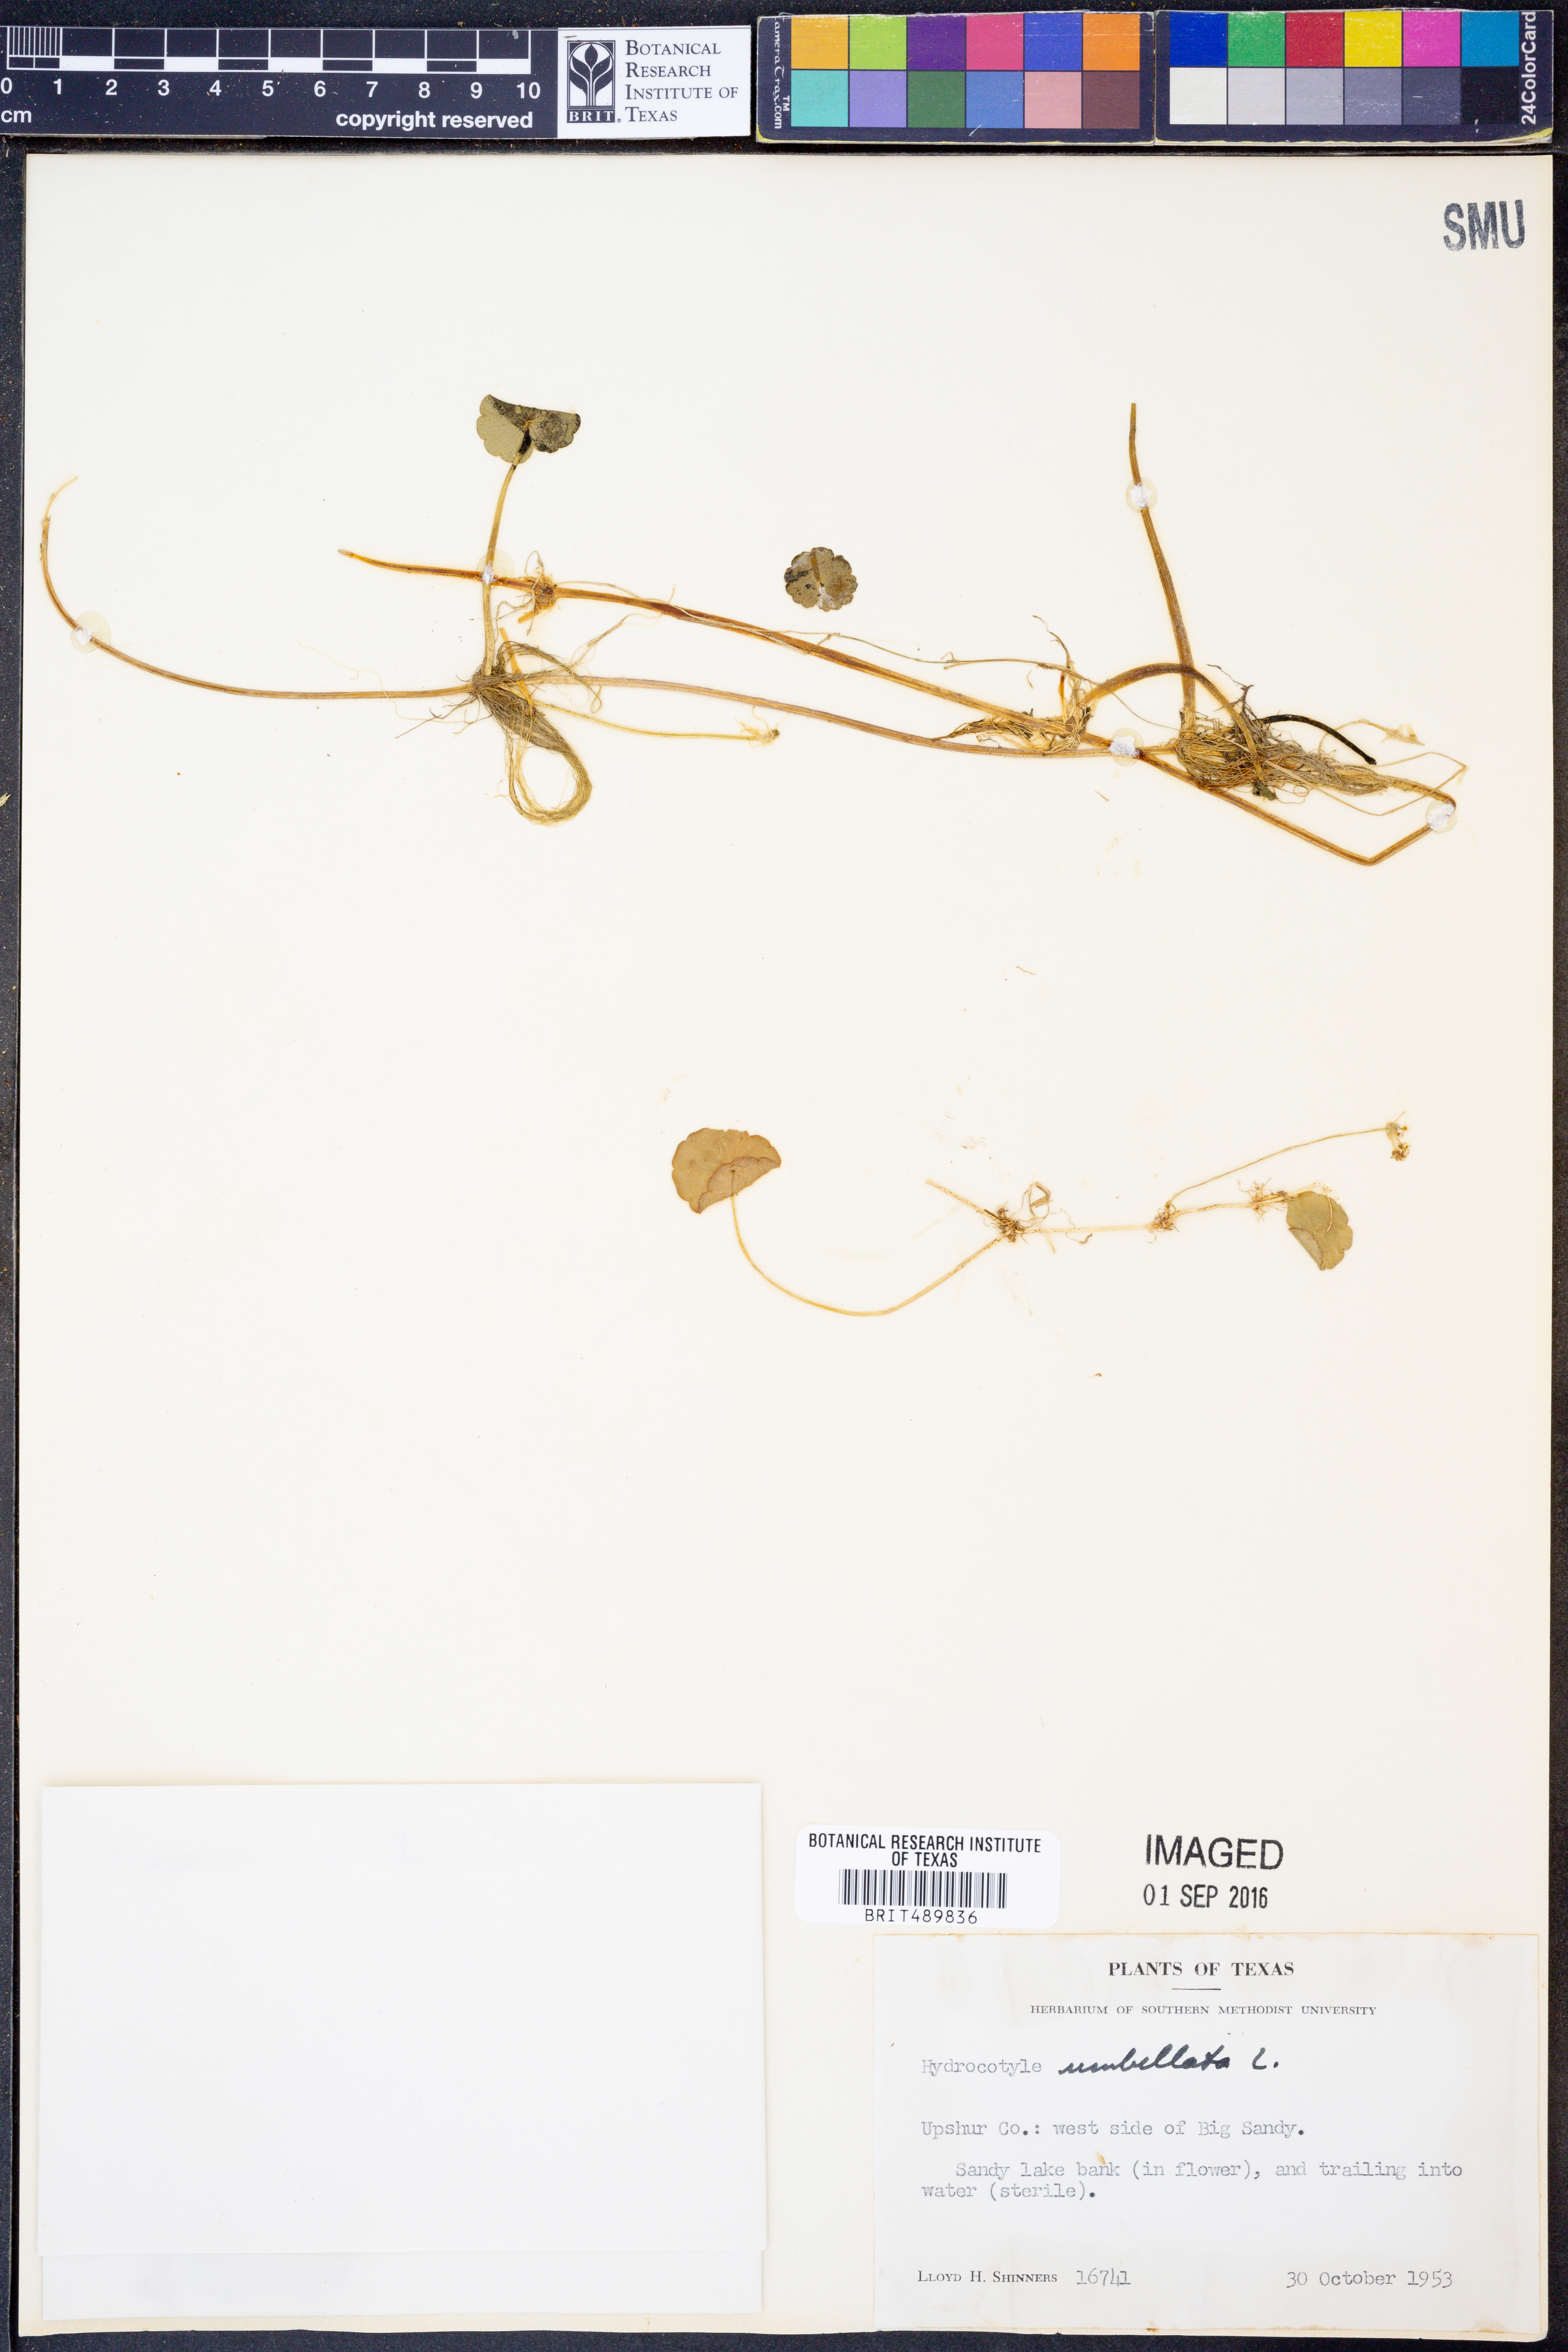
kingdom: Plantae
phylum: Tracheophyta
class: Magnoliopsida
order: Apiales
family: Araliaceae
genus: Hydrocotyle
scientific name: Hydrocotyle umbellata
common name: Water pennywort
